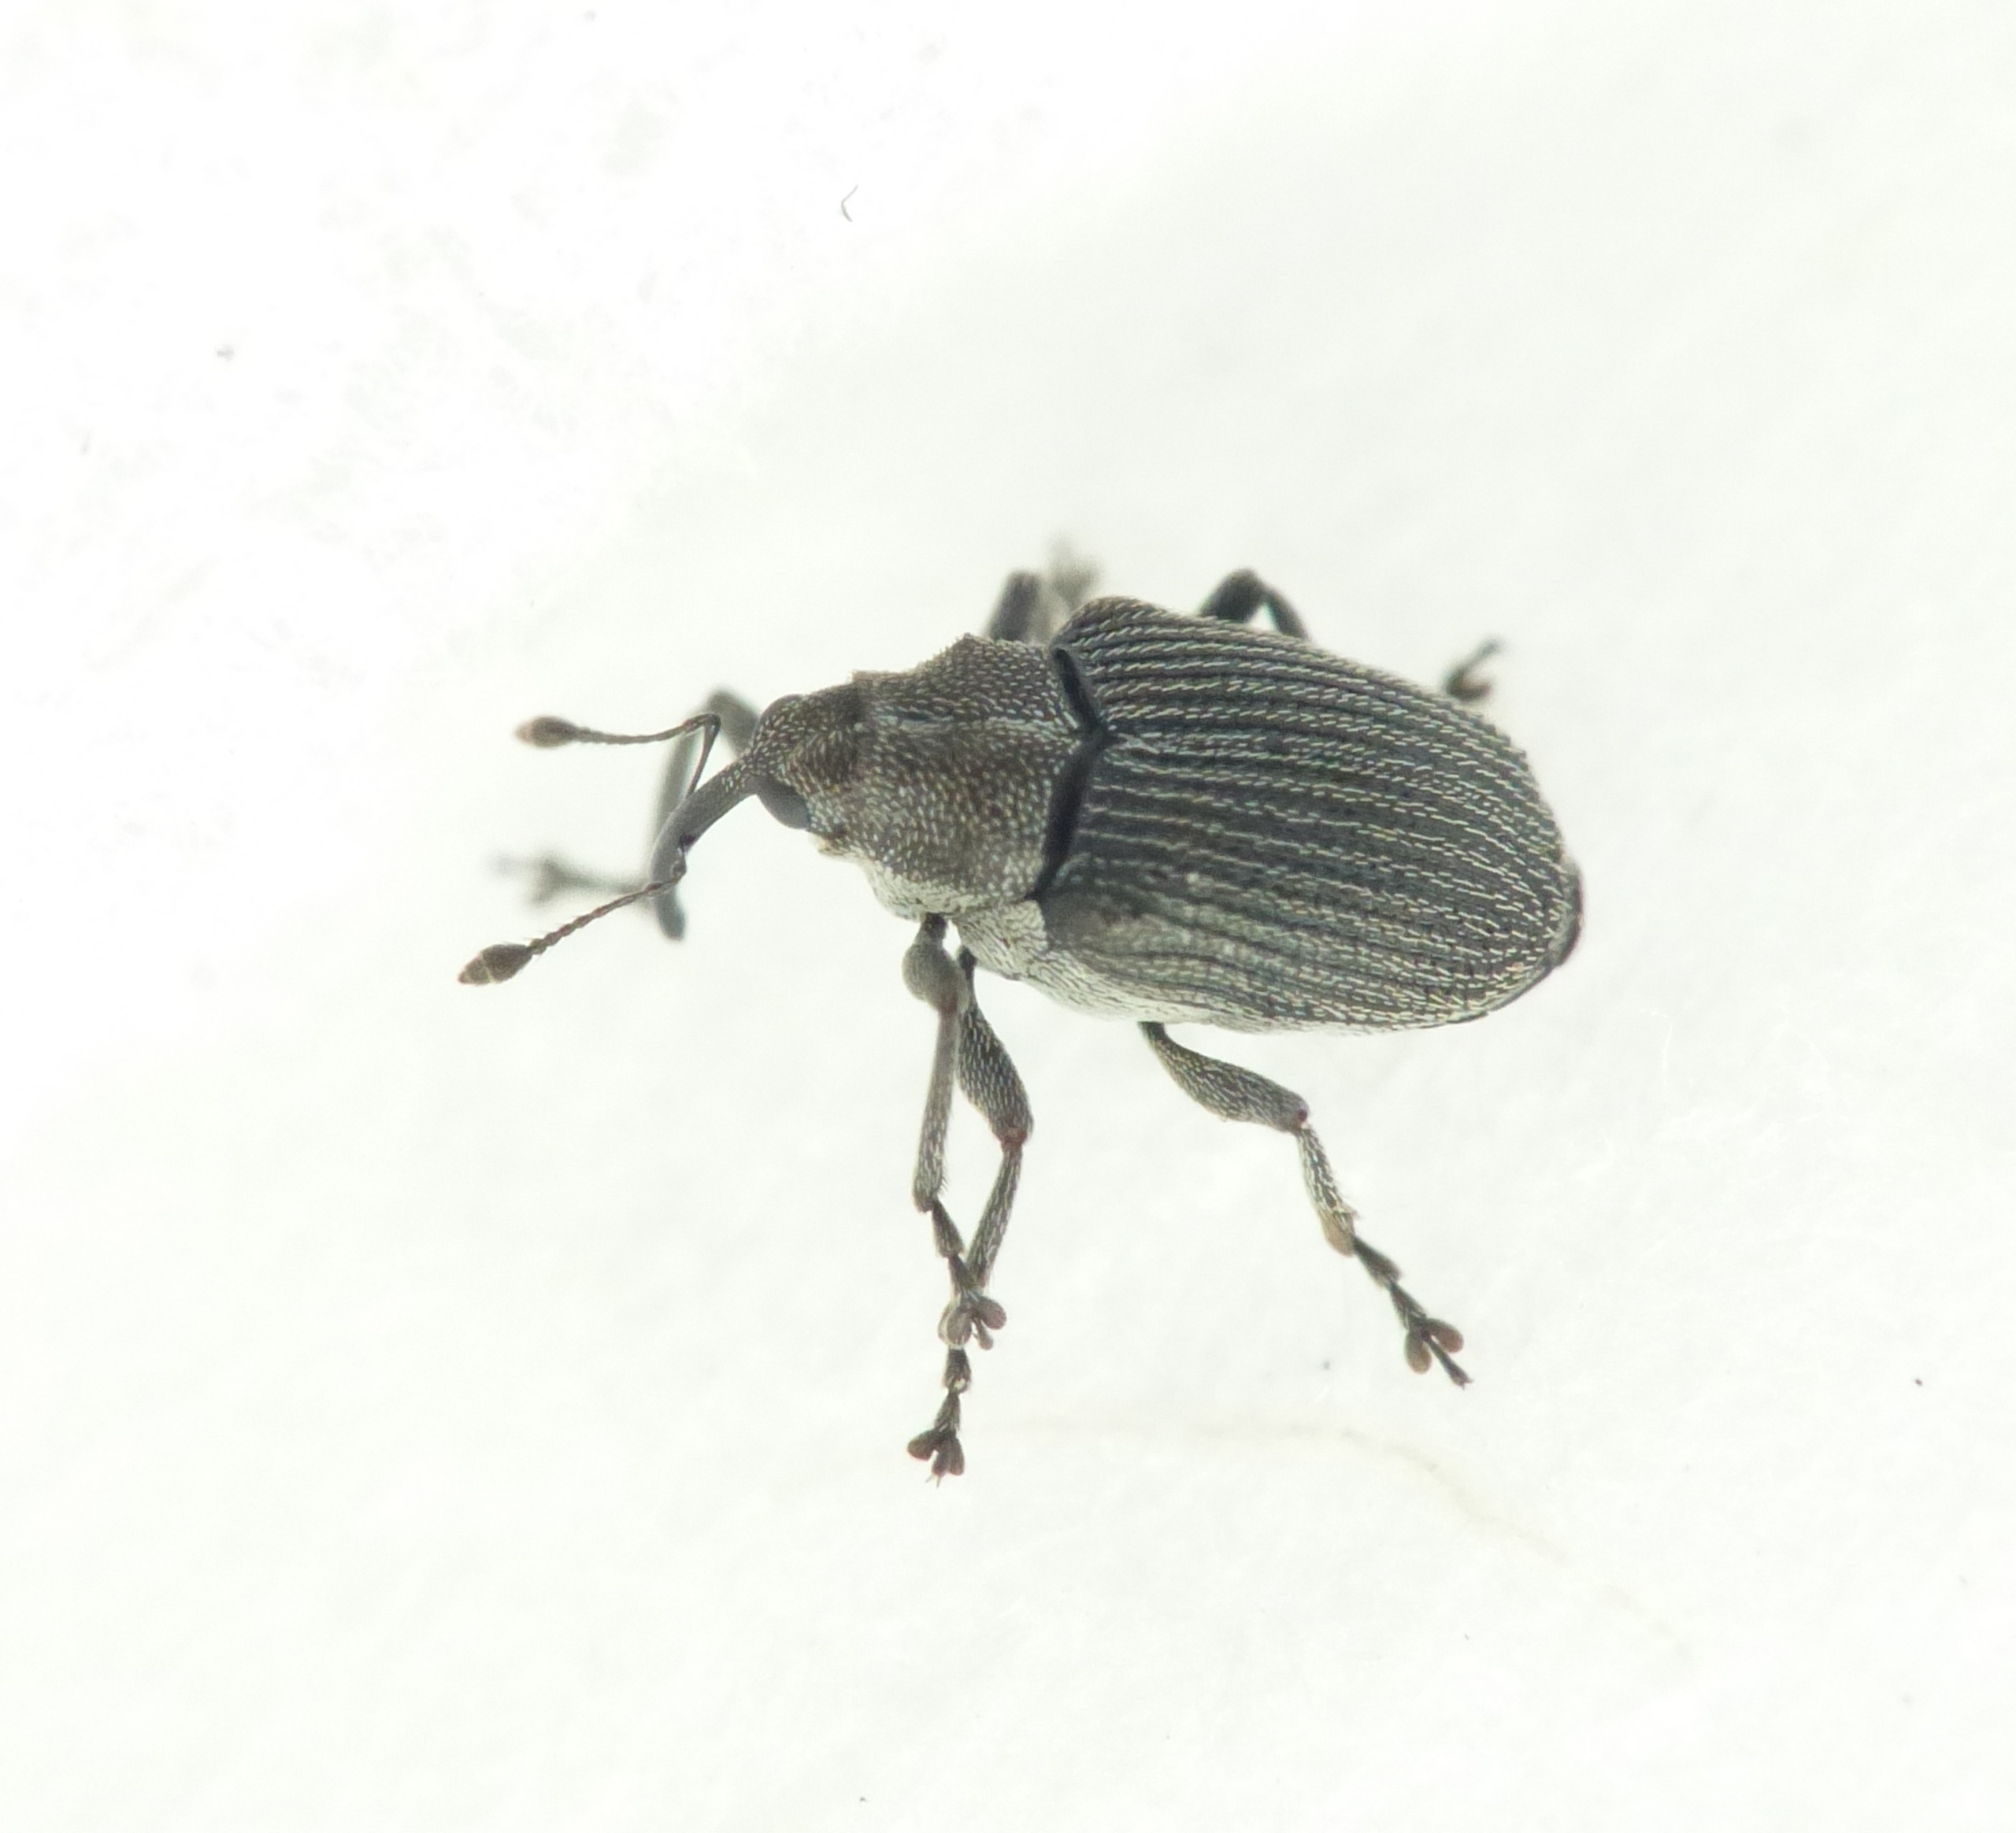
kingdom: Animalia
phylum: Arthropoda
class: Insecta
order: Coleoptera
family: Curculionidae
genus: Ceutorhynchus
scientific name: Ceutorhynchus obstrictus
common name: Blygrå rapssnudebille
